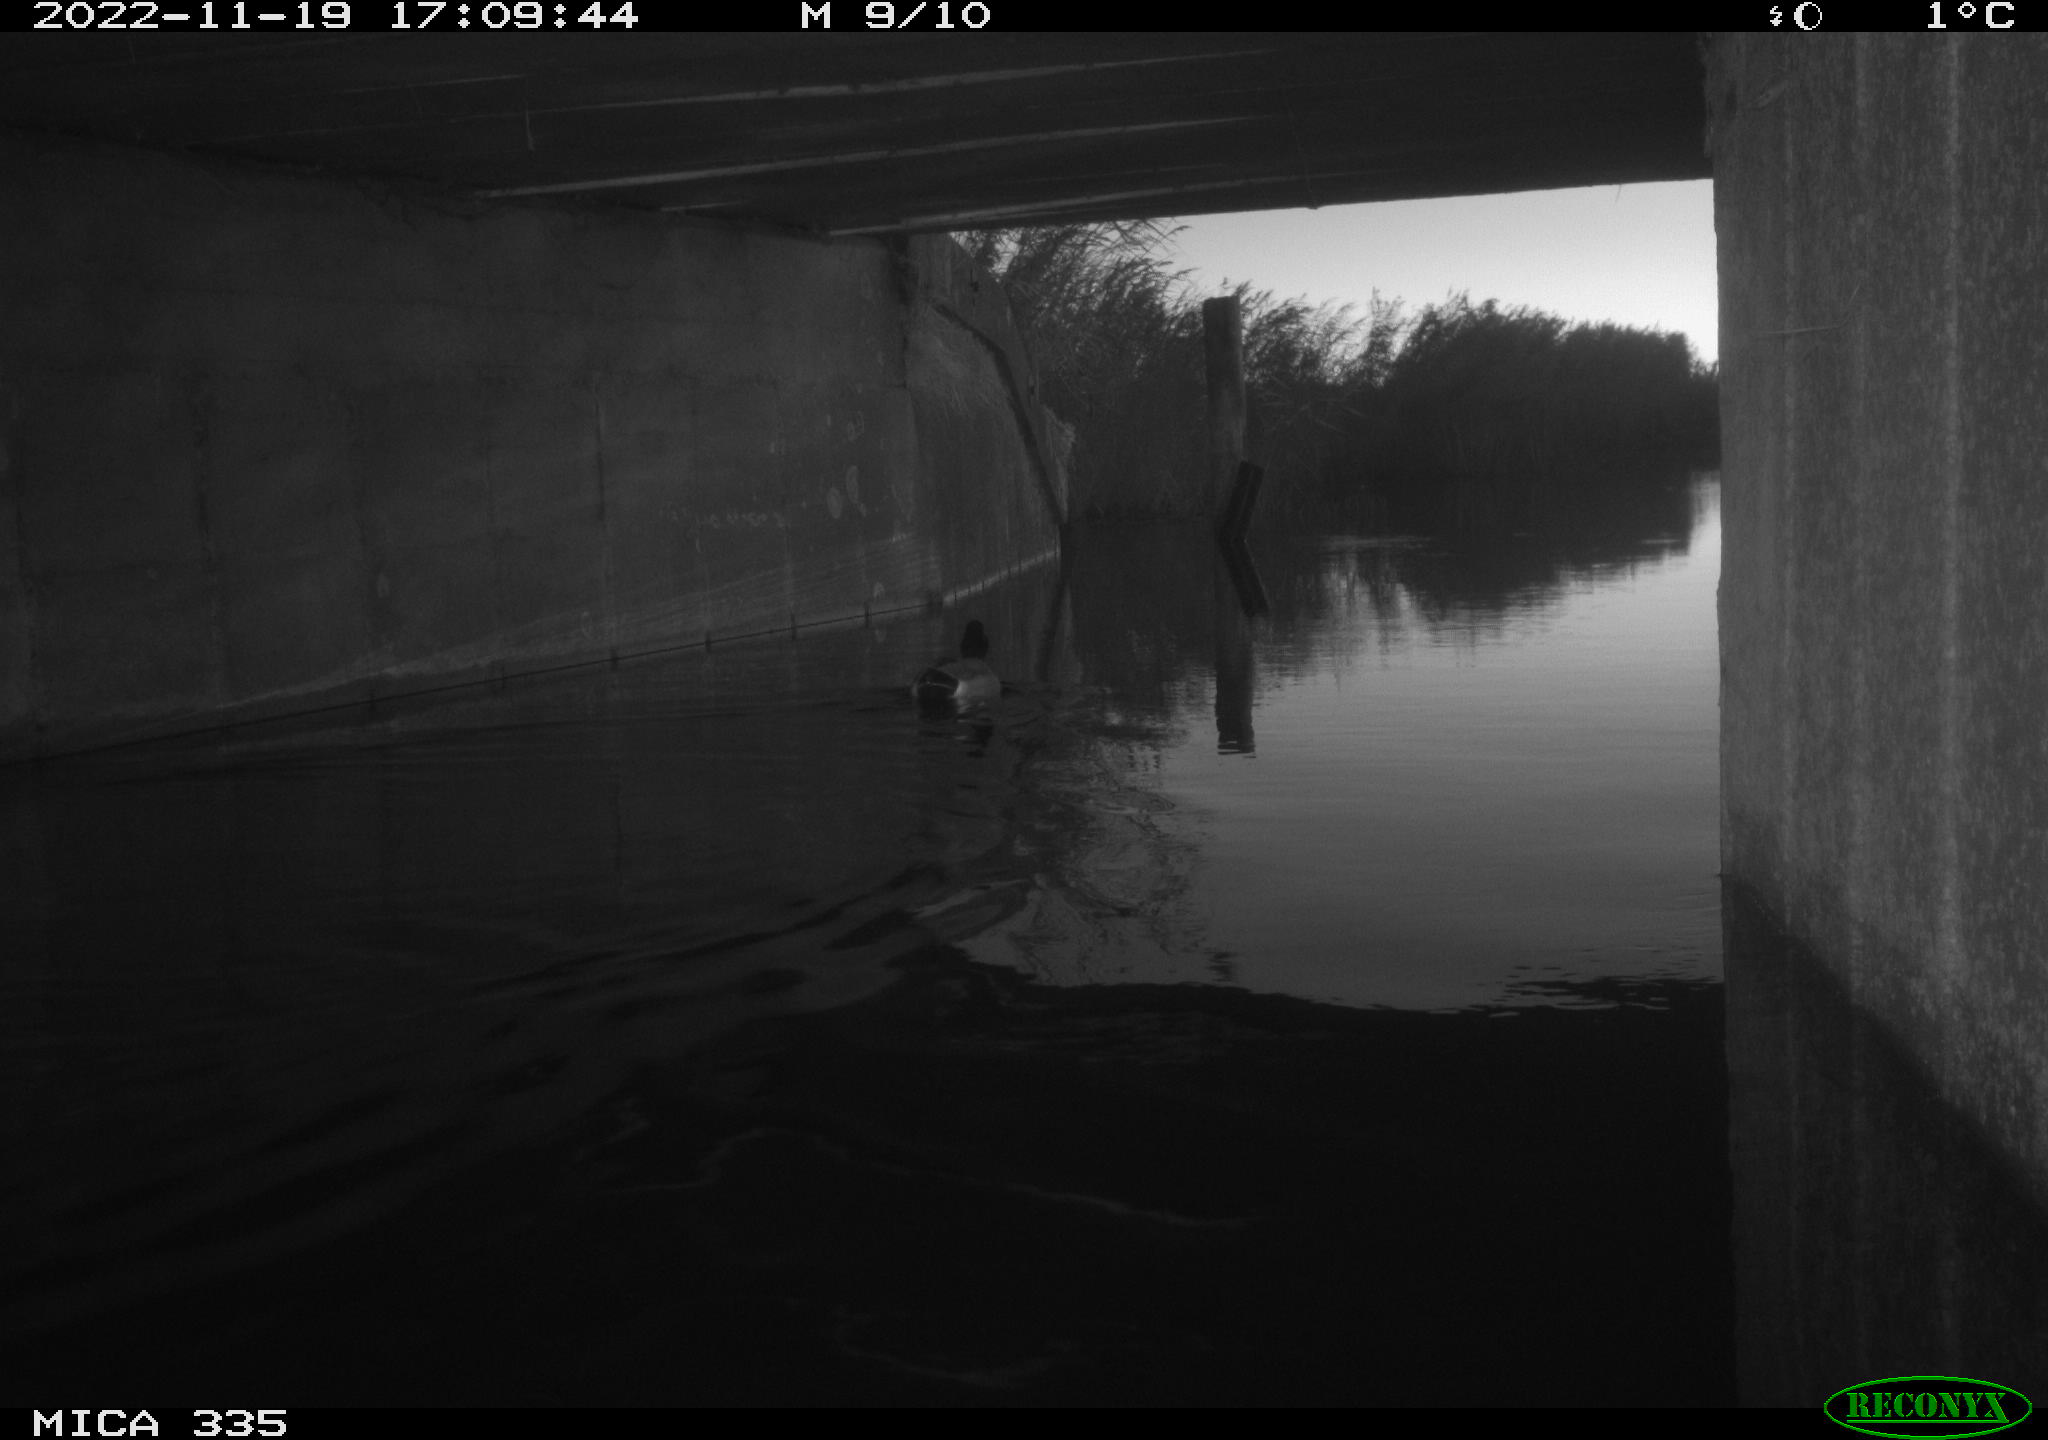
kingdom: Animalia
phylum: Chordata
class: Aves
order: Anseriformes
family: Anatidae
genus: Anas
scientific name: Anas platyrhynchos
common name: Mallard
